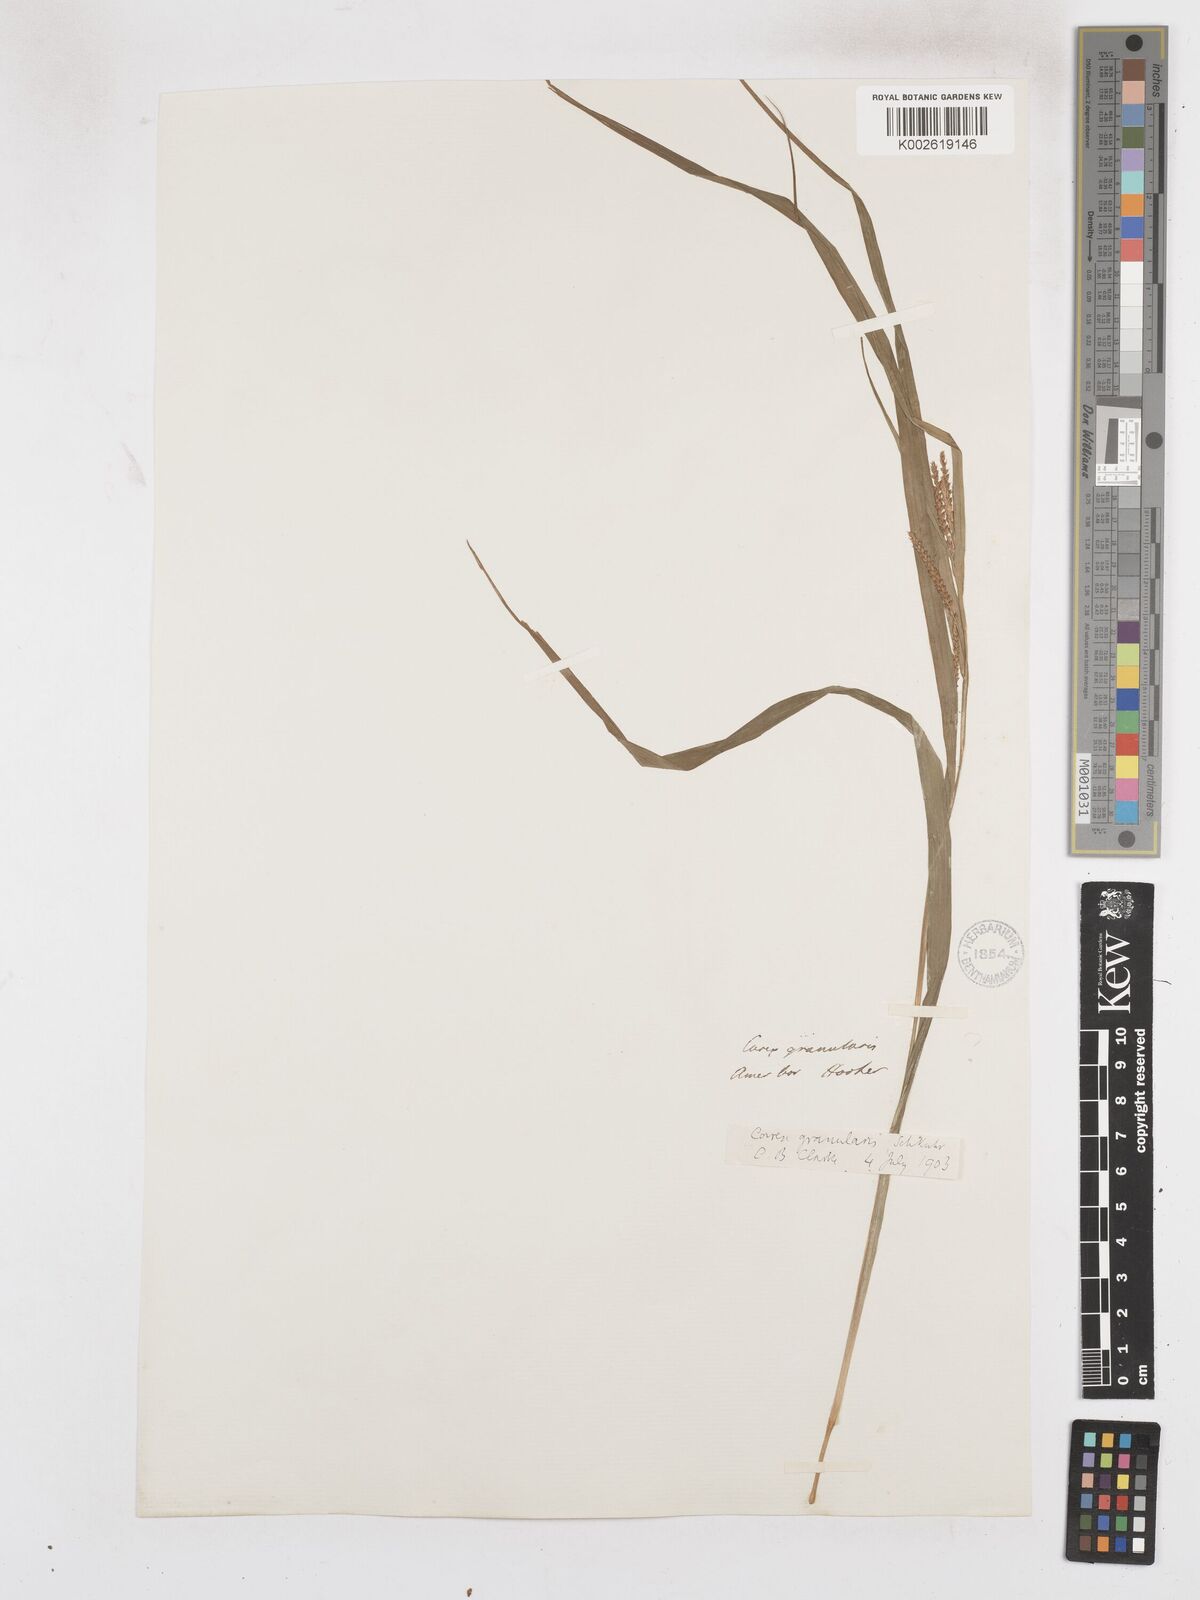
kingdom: Plantae
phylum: Tracheophyta
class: Liliopsida
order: Poales
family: Cyperaceae
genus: Carex
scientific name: Carex granularis
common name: Granular sedge
